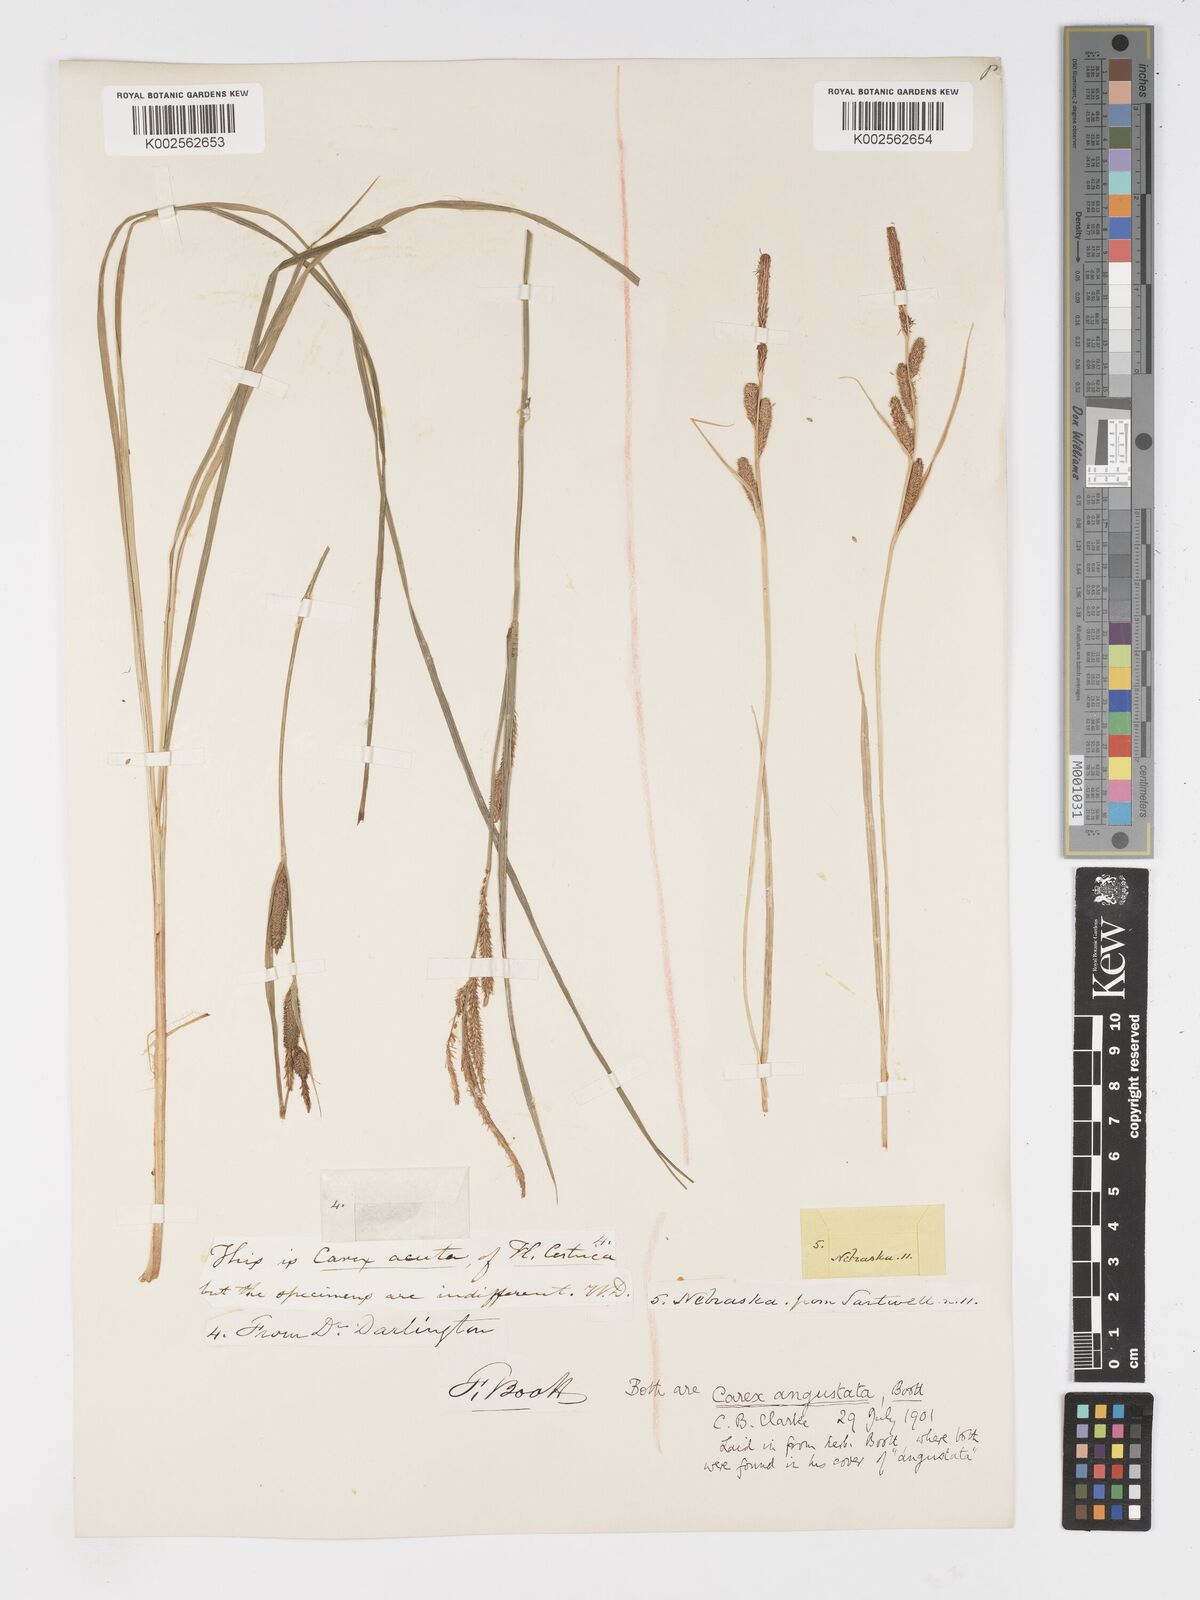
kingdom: Plantae
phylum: Tracheophyta
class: Liliopsida
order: Poales
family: Cyperaceae
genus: Carex
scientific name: Carex stricta
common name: Hummock sedge
